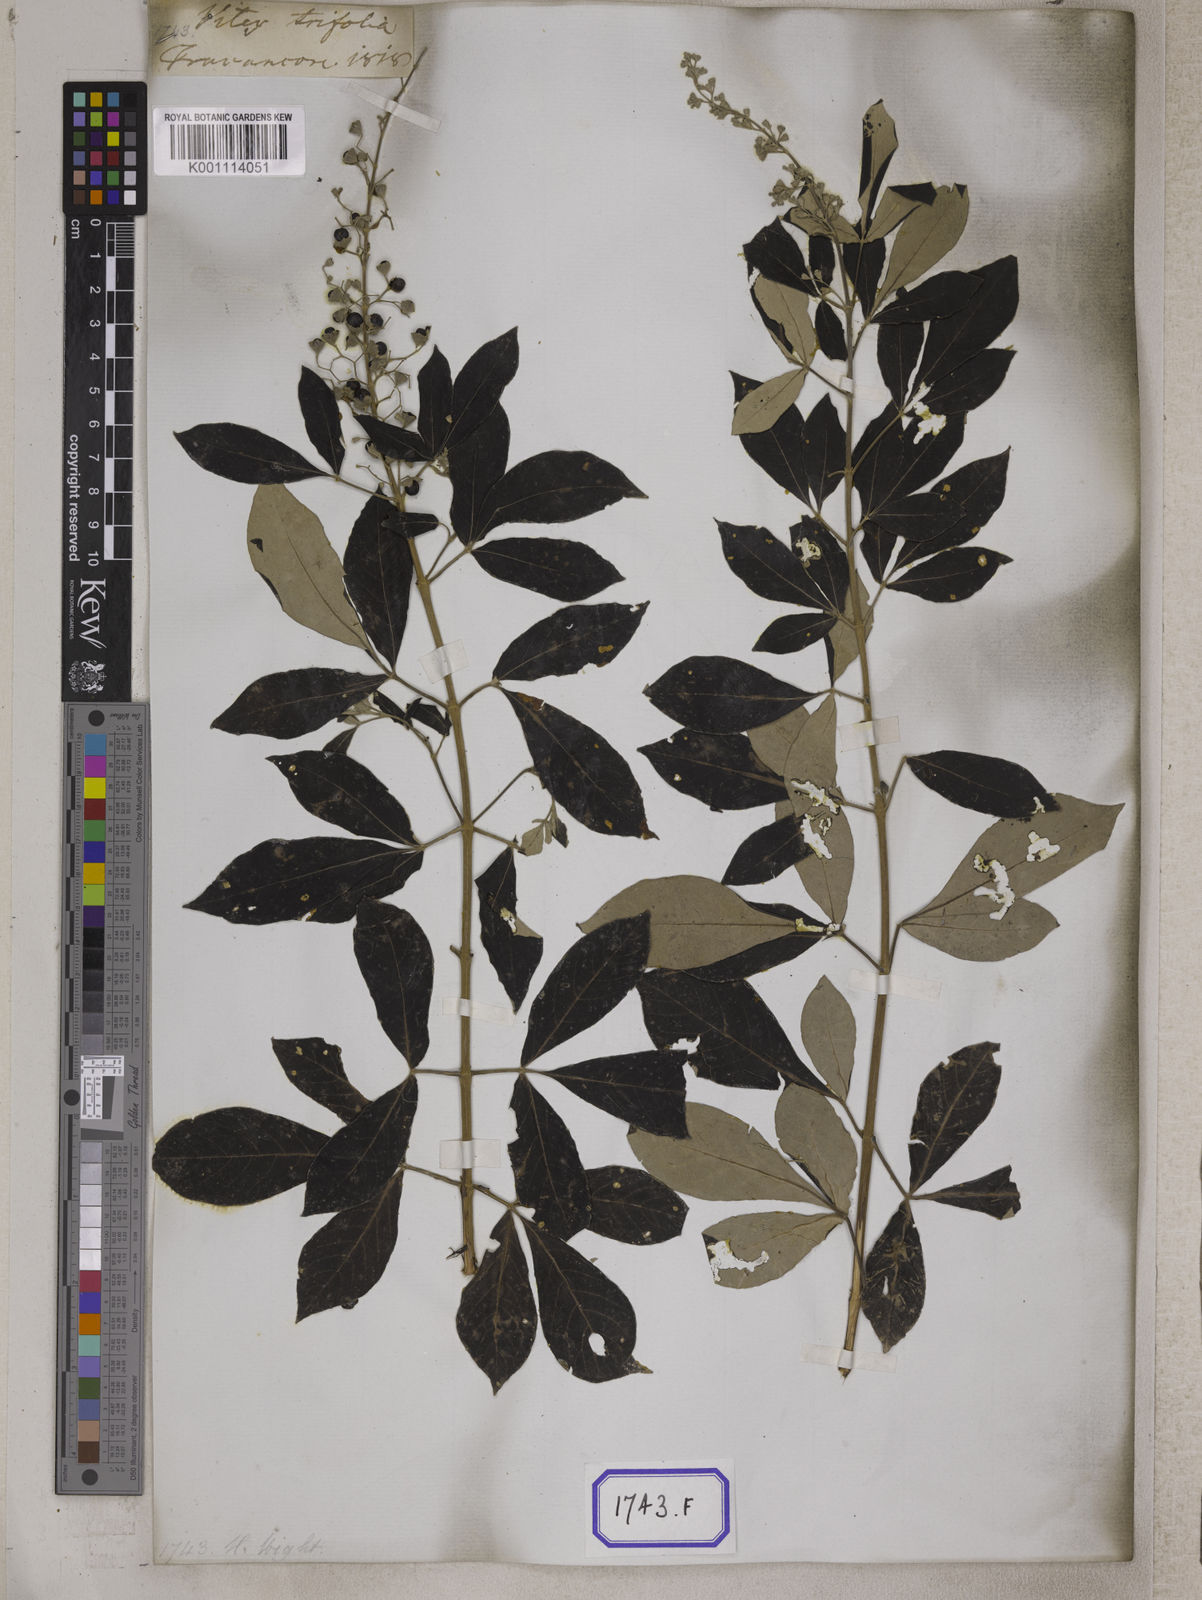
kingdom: Plantae
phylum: Tracheophyta
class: Magnoliopsida
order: Lamiales
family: Lamiaceae
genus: Vitex
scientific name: Vitex trifolia
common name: Simpleleaf chastetree
